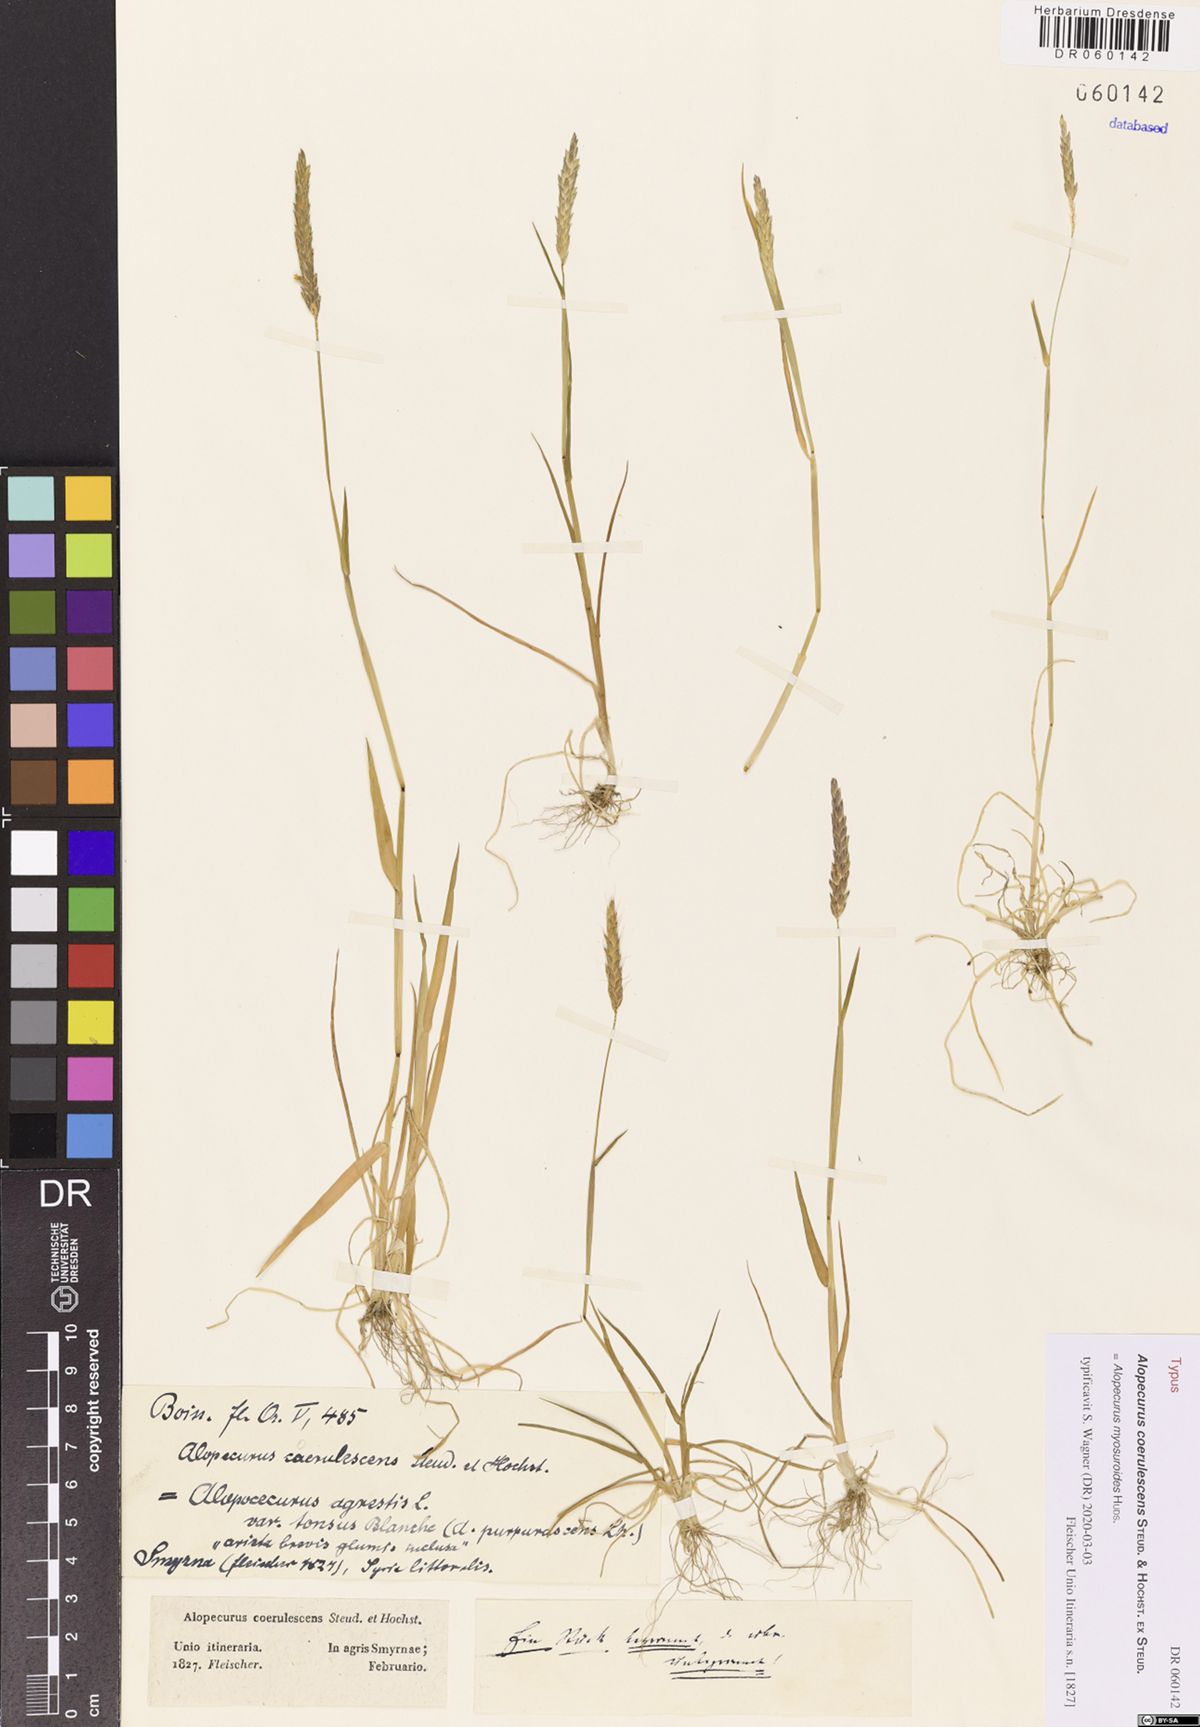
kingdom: Plantae
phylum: Tracheophyta
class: Liliopsida
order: Poales
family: Poaceae
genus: Alopecurus
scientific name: Alopecurus myosuroides
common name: Black-grass
